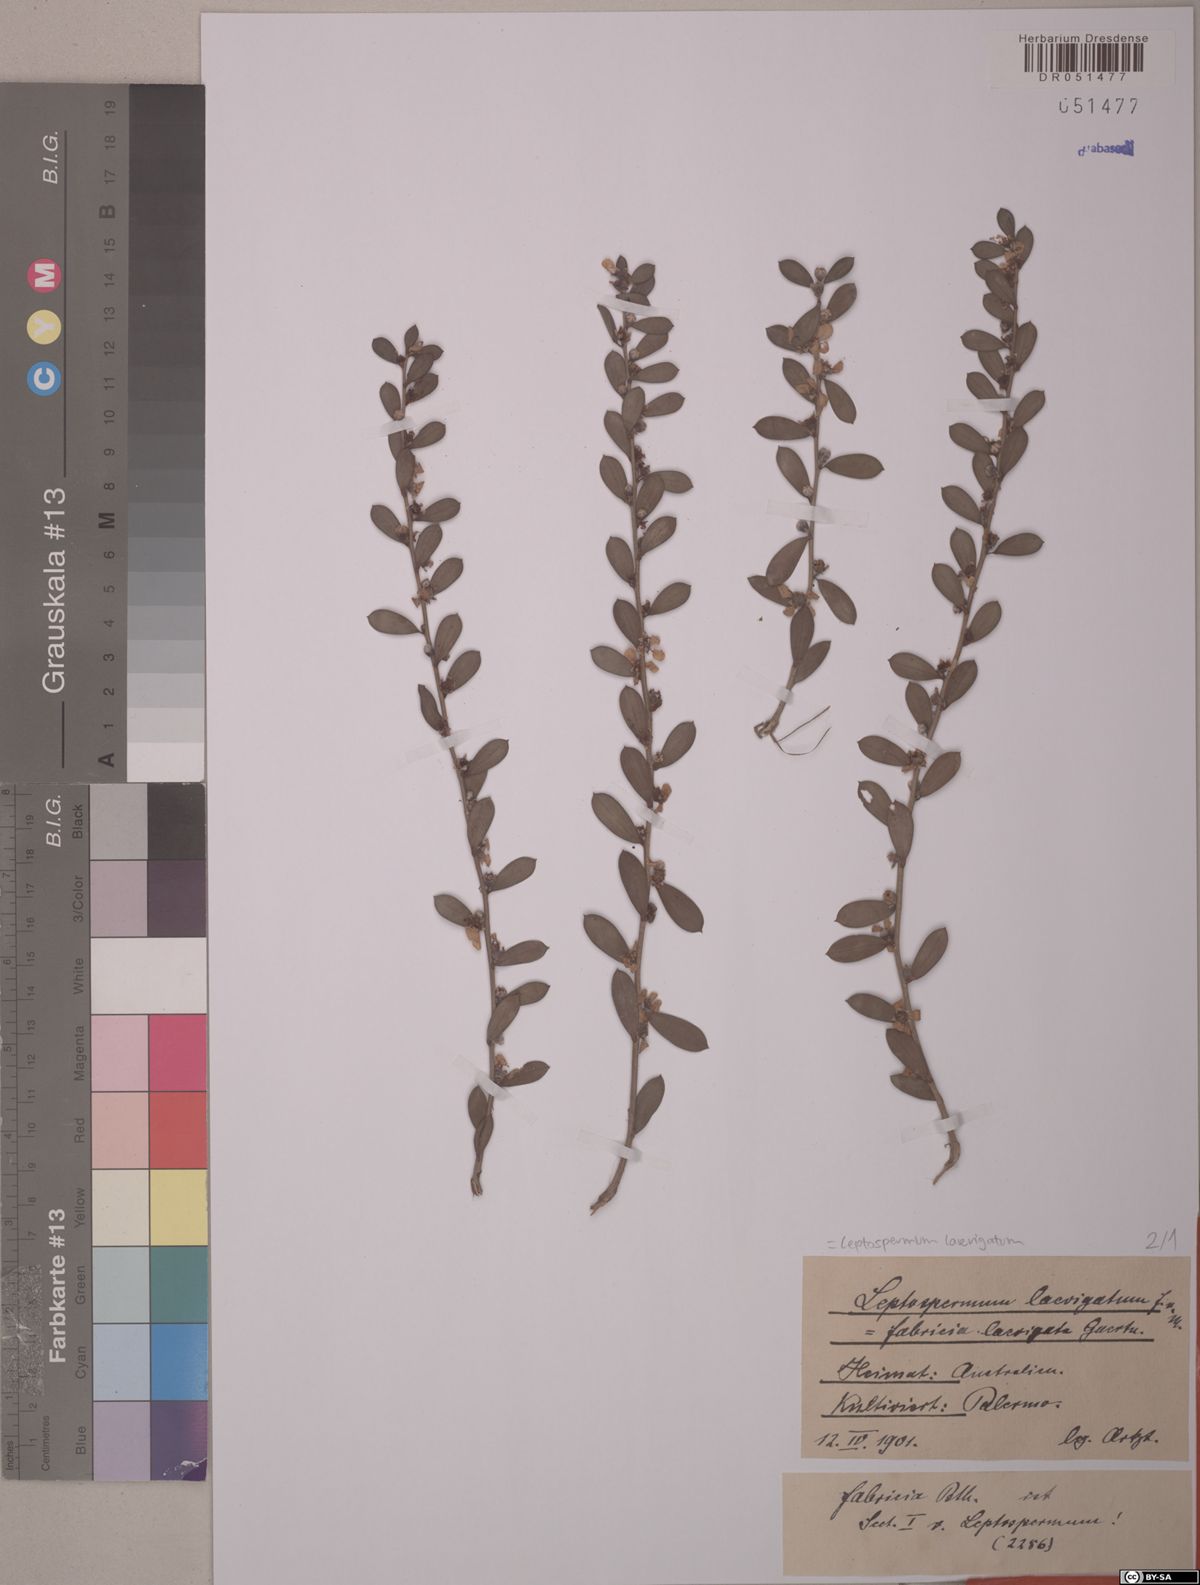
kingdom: Plantae
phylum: Tracheophyta
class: Magnoliopsida
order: Myrtales
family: Myrtaceae
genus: Leptospermum
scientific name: Leptospermum laevigatum
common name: Australian teatree
